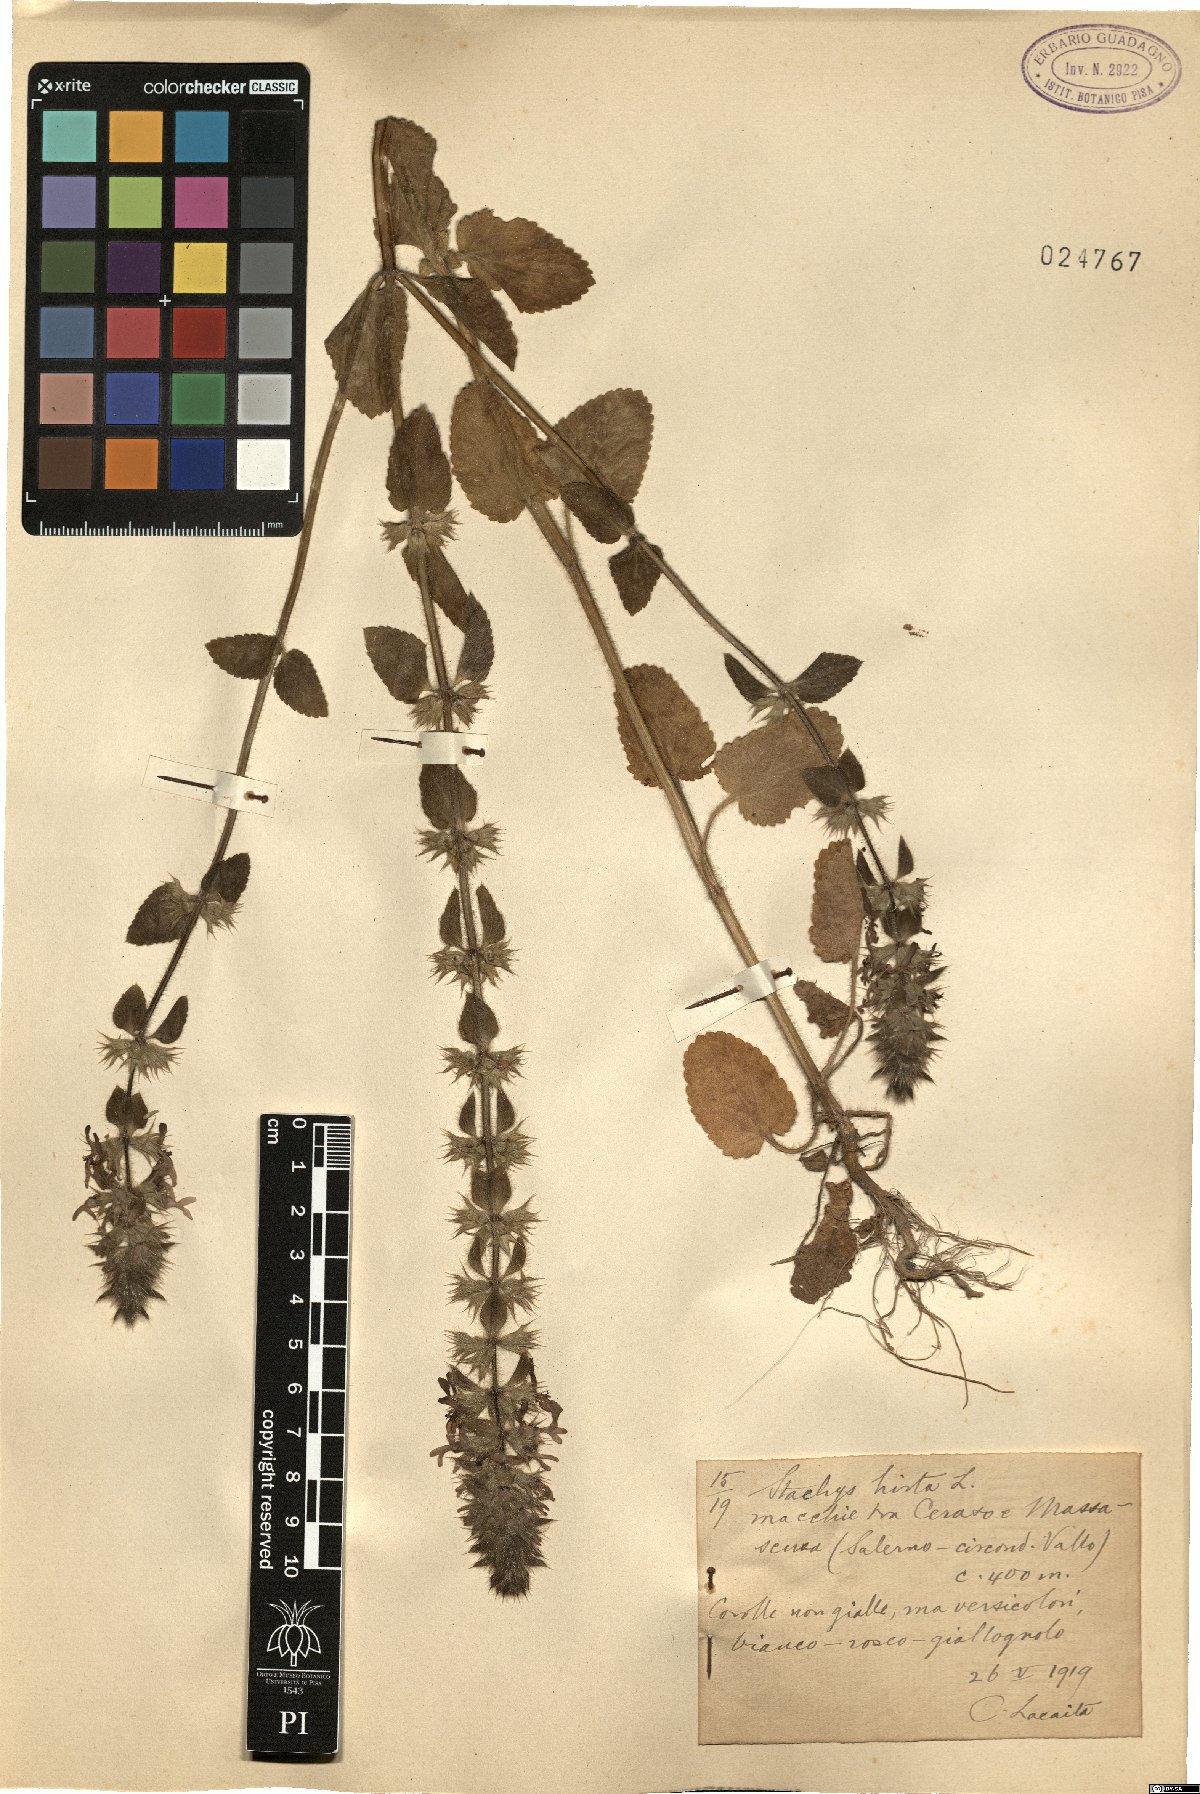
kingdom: Plantae
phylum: Tracheophyta
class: Magnoliopsida
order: Lamiales
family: Lamiaceae
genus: Stachys
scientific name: Stachys ocymastrum
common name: Italian hedgenettle
